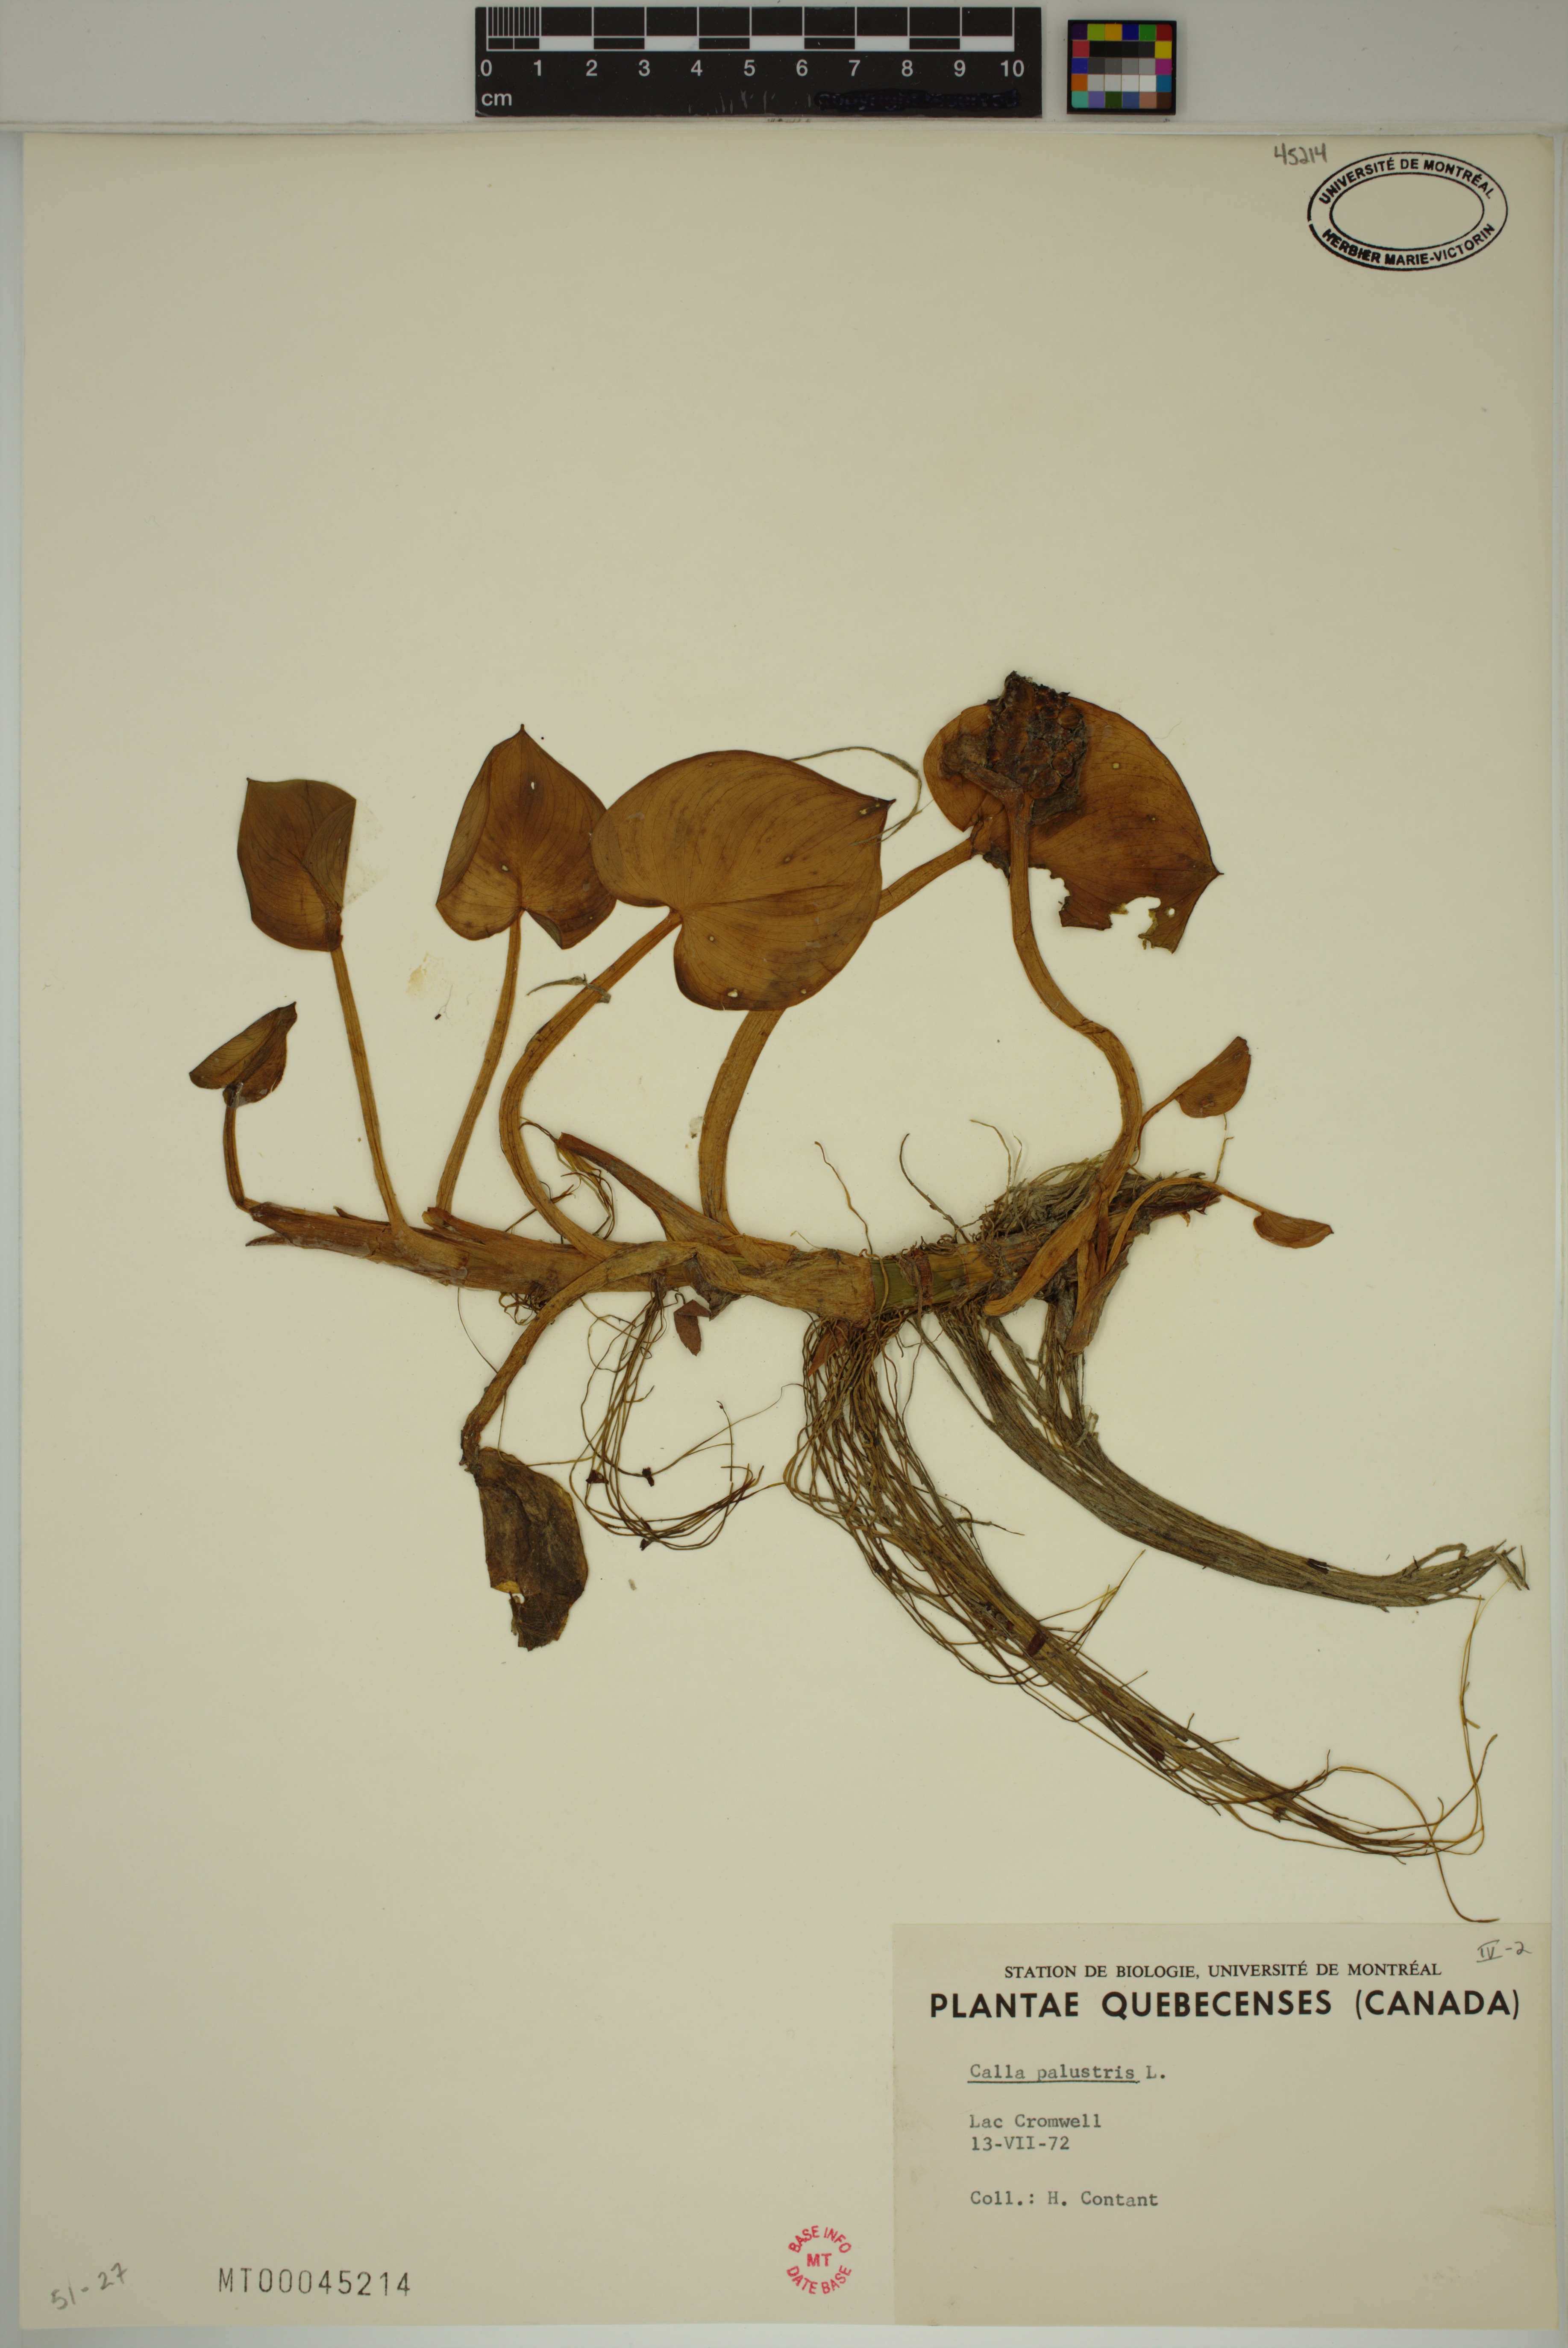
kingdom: Plantae
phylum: Tracheophyta
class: Liliopsida
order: Alismatales
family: Araceae
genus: Calla
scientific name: Calla palustris
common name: Bog arum
